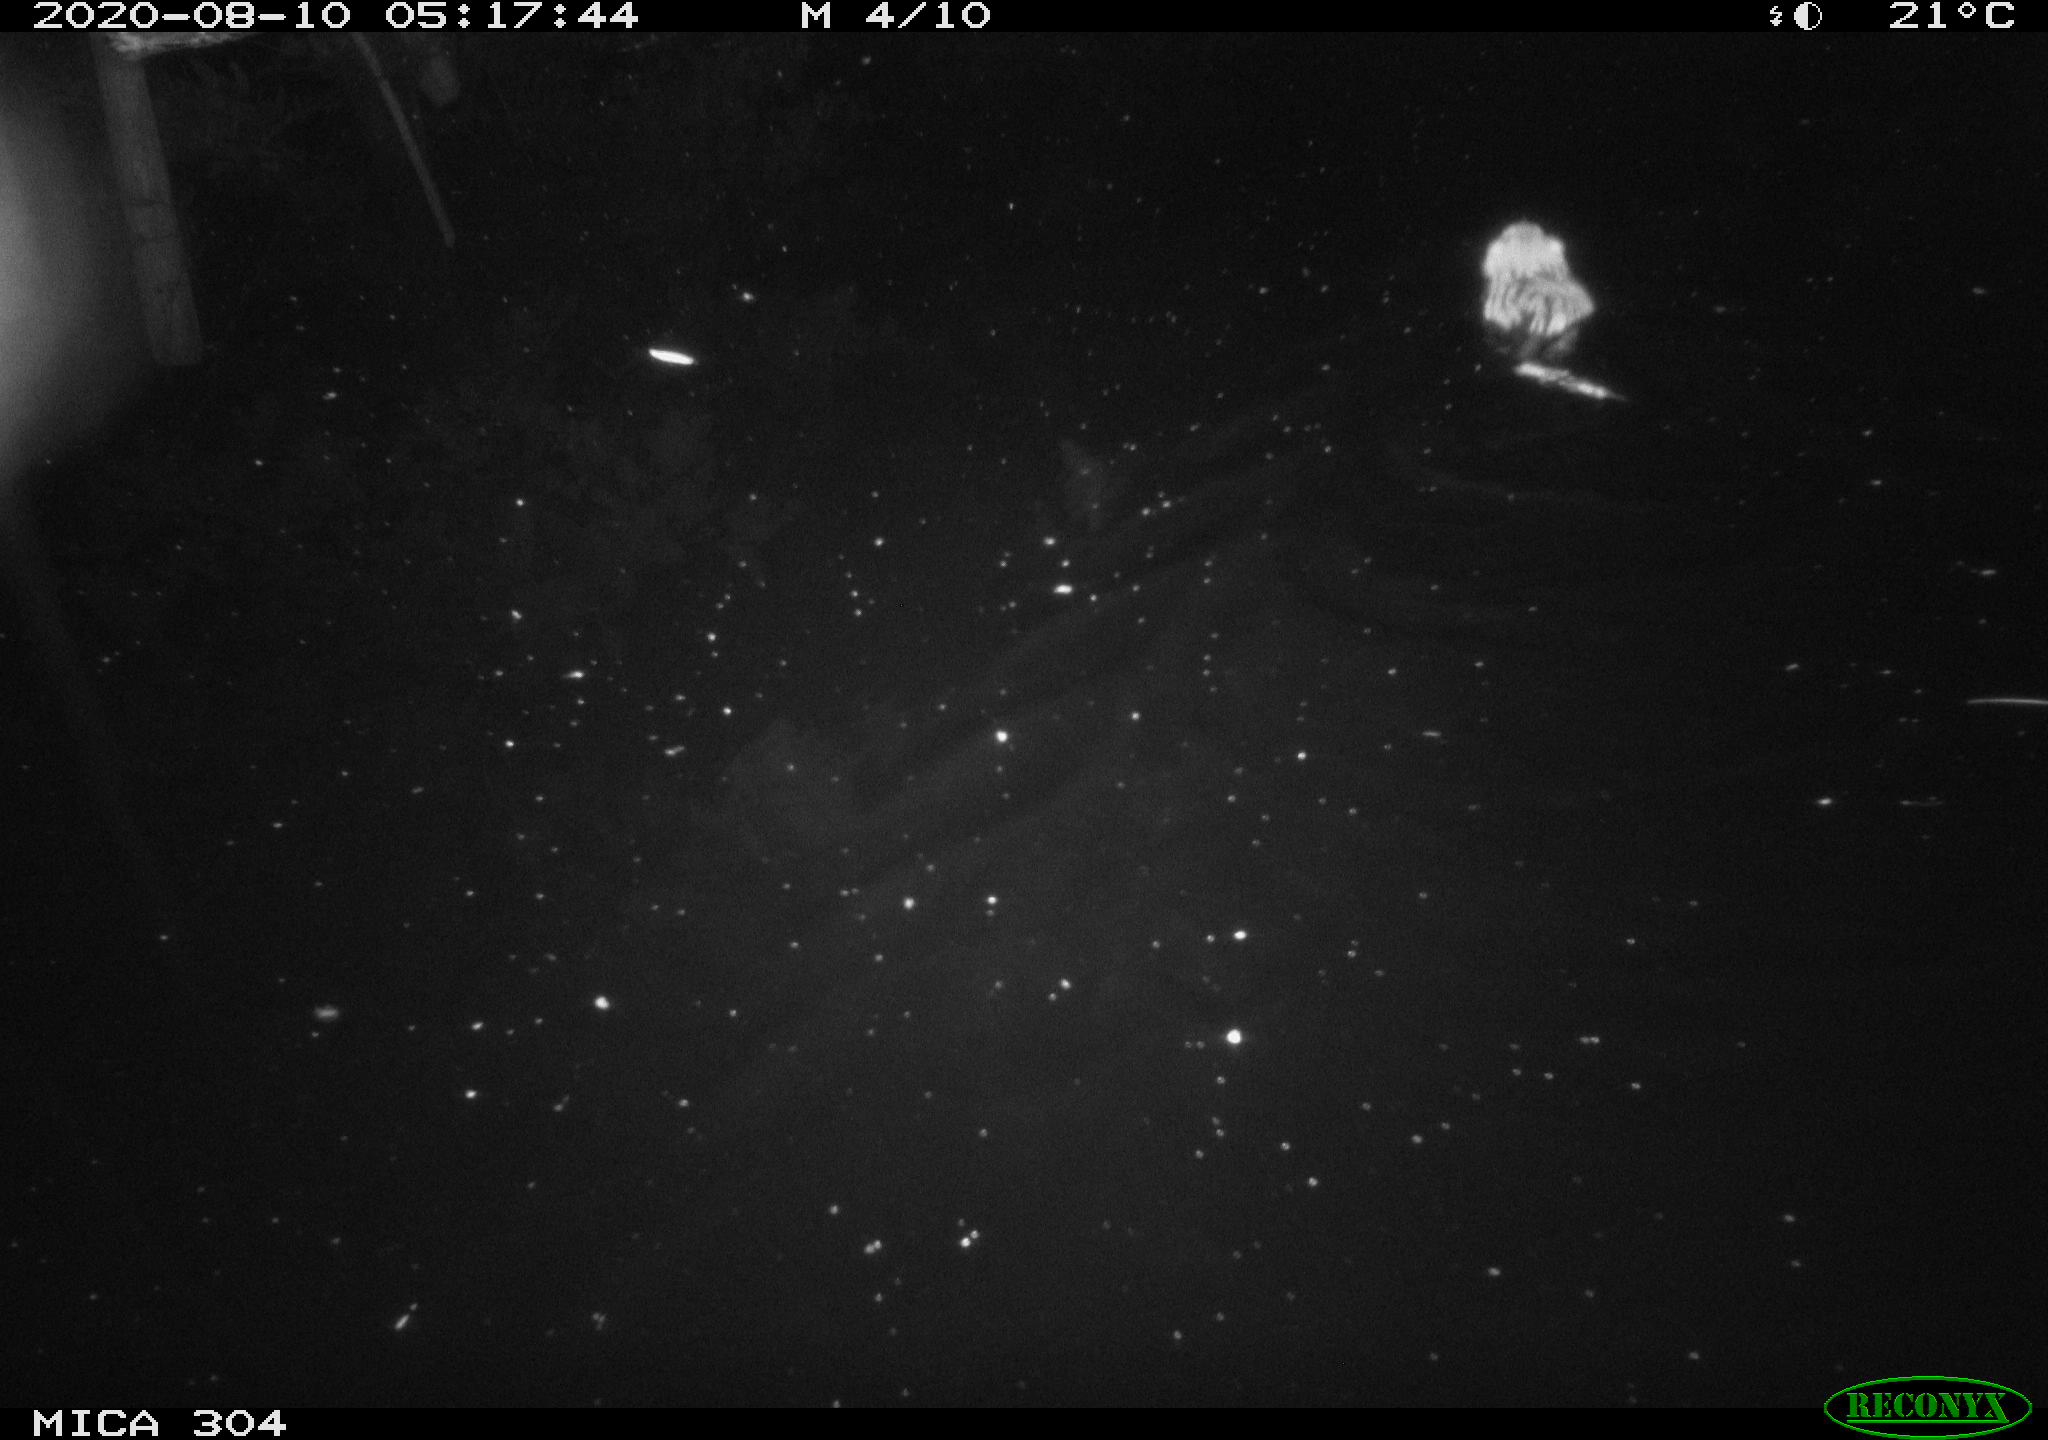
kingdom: Animalia
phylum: Chordata
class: Mammalia
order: Rodentia
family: Cricetidae
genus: Ondatra
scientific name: Ondatra zibethicus
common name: Muskrat
